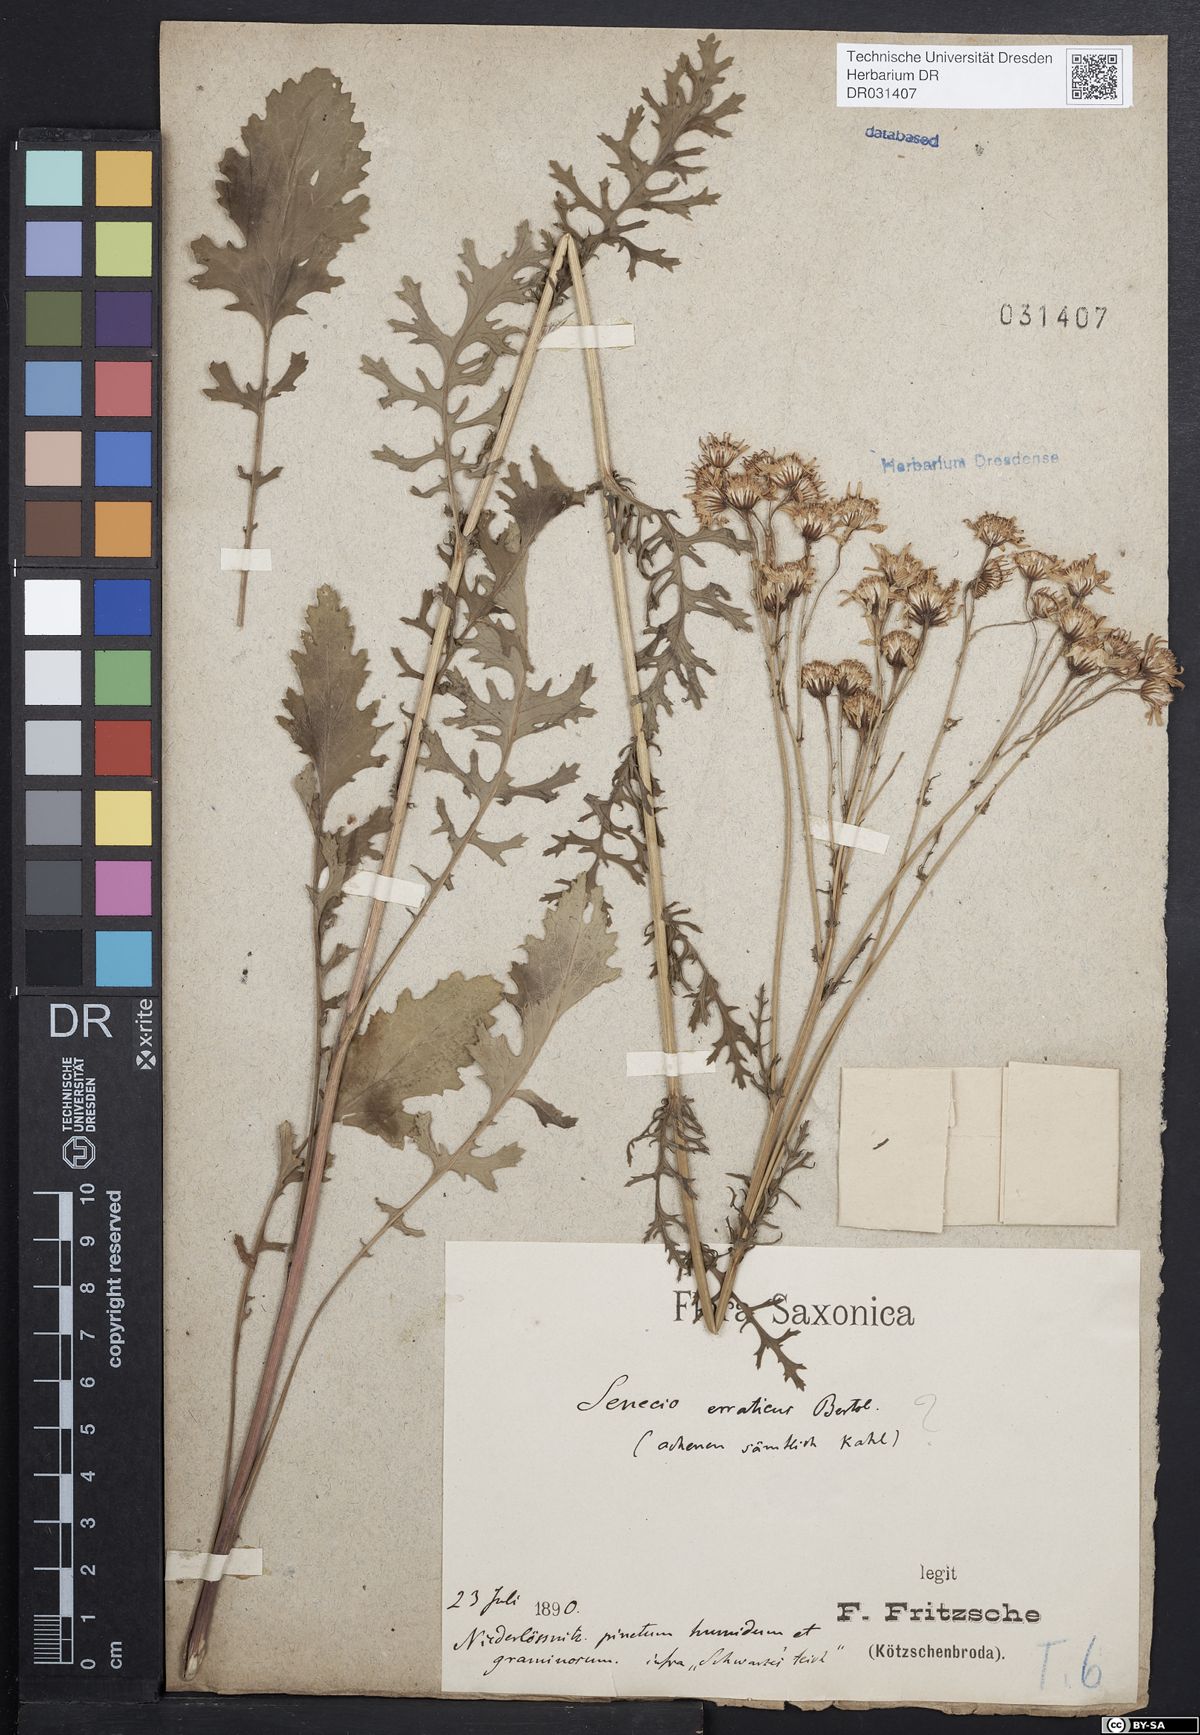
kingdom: Plantae
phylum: Tracheophyta
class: Magnoliopsida
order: Asterales
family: Asteraceae
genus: Jacobaea
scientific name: Jacobaea erucifolia
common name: Hoary ragwort
